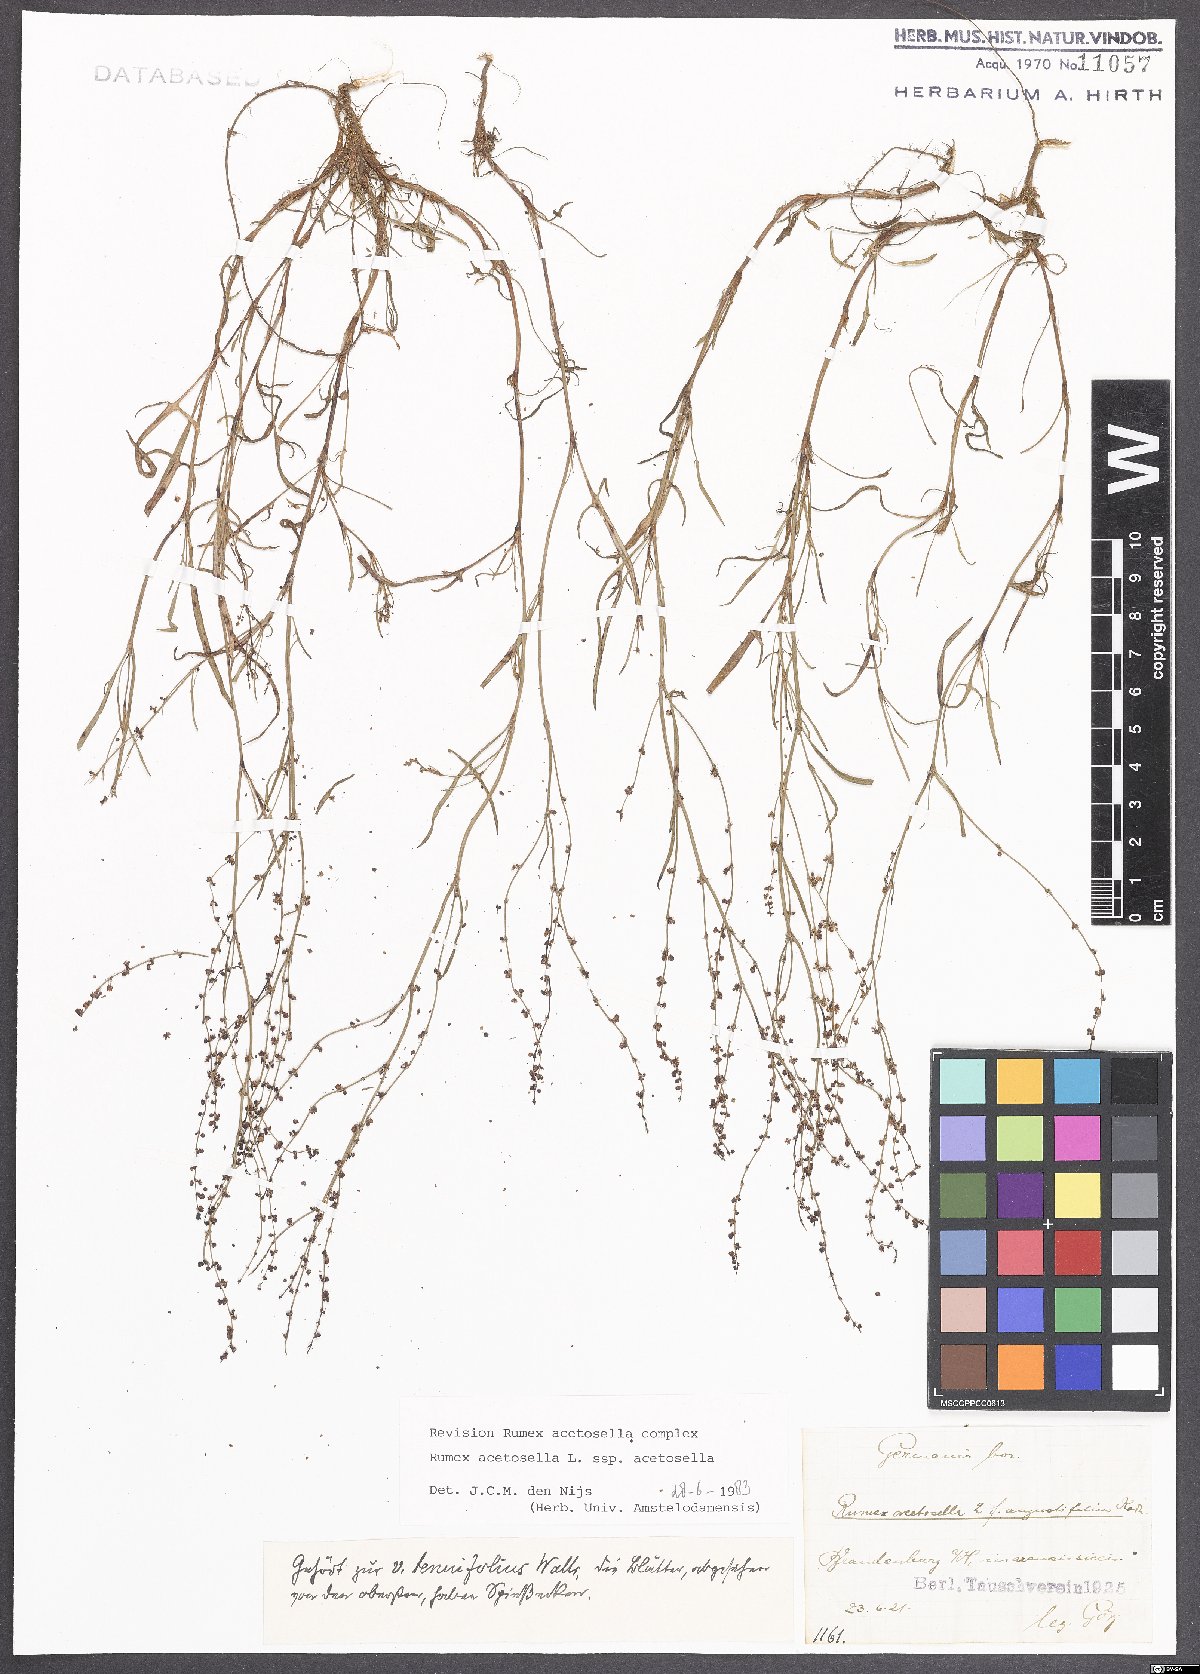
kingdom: Plantae
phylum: Tracheophyta
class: Magnoliopsida
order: Caryophyllales
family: Polygonaceae
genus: Rumex
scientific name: Rumex acetosella
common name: Common sheep sorrel
